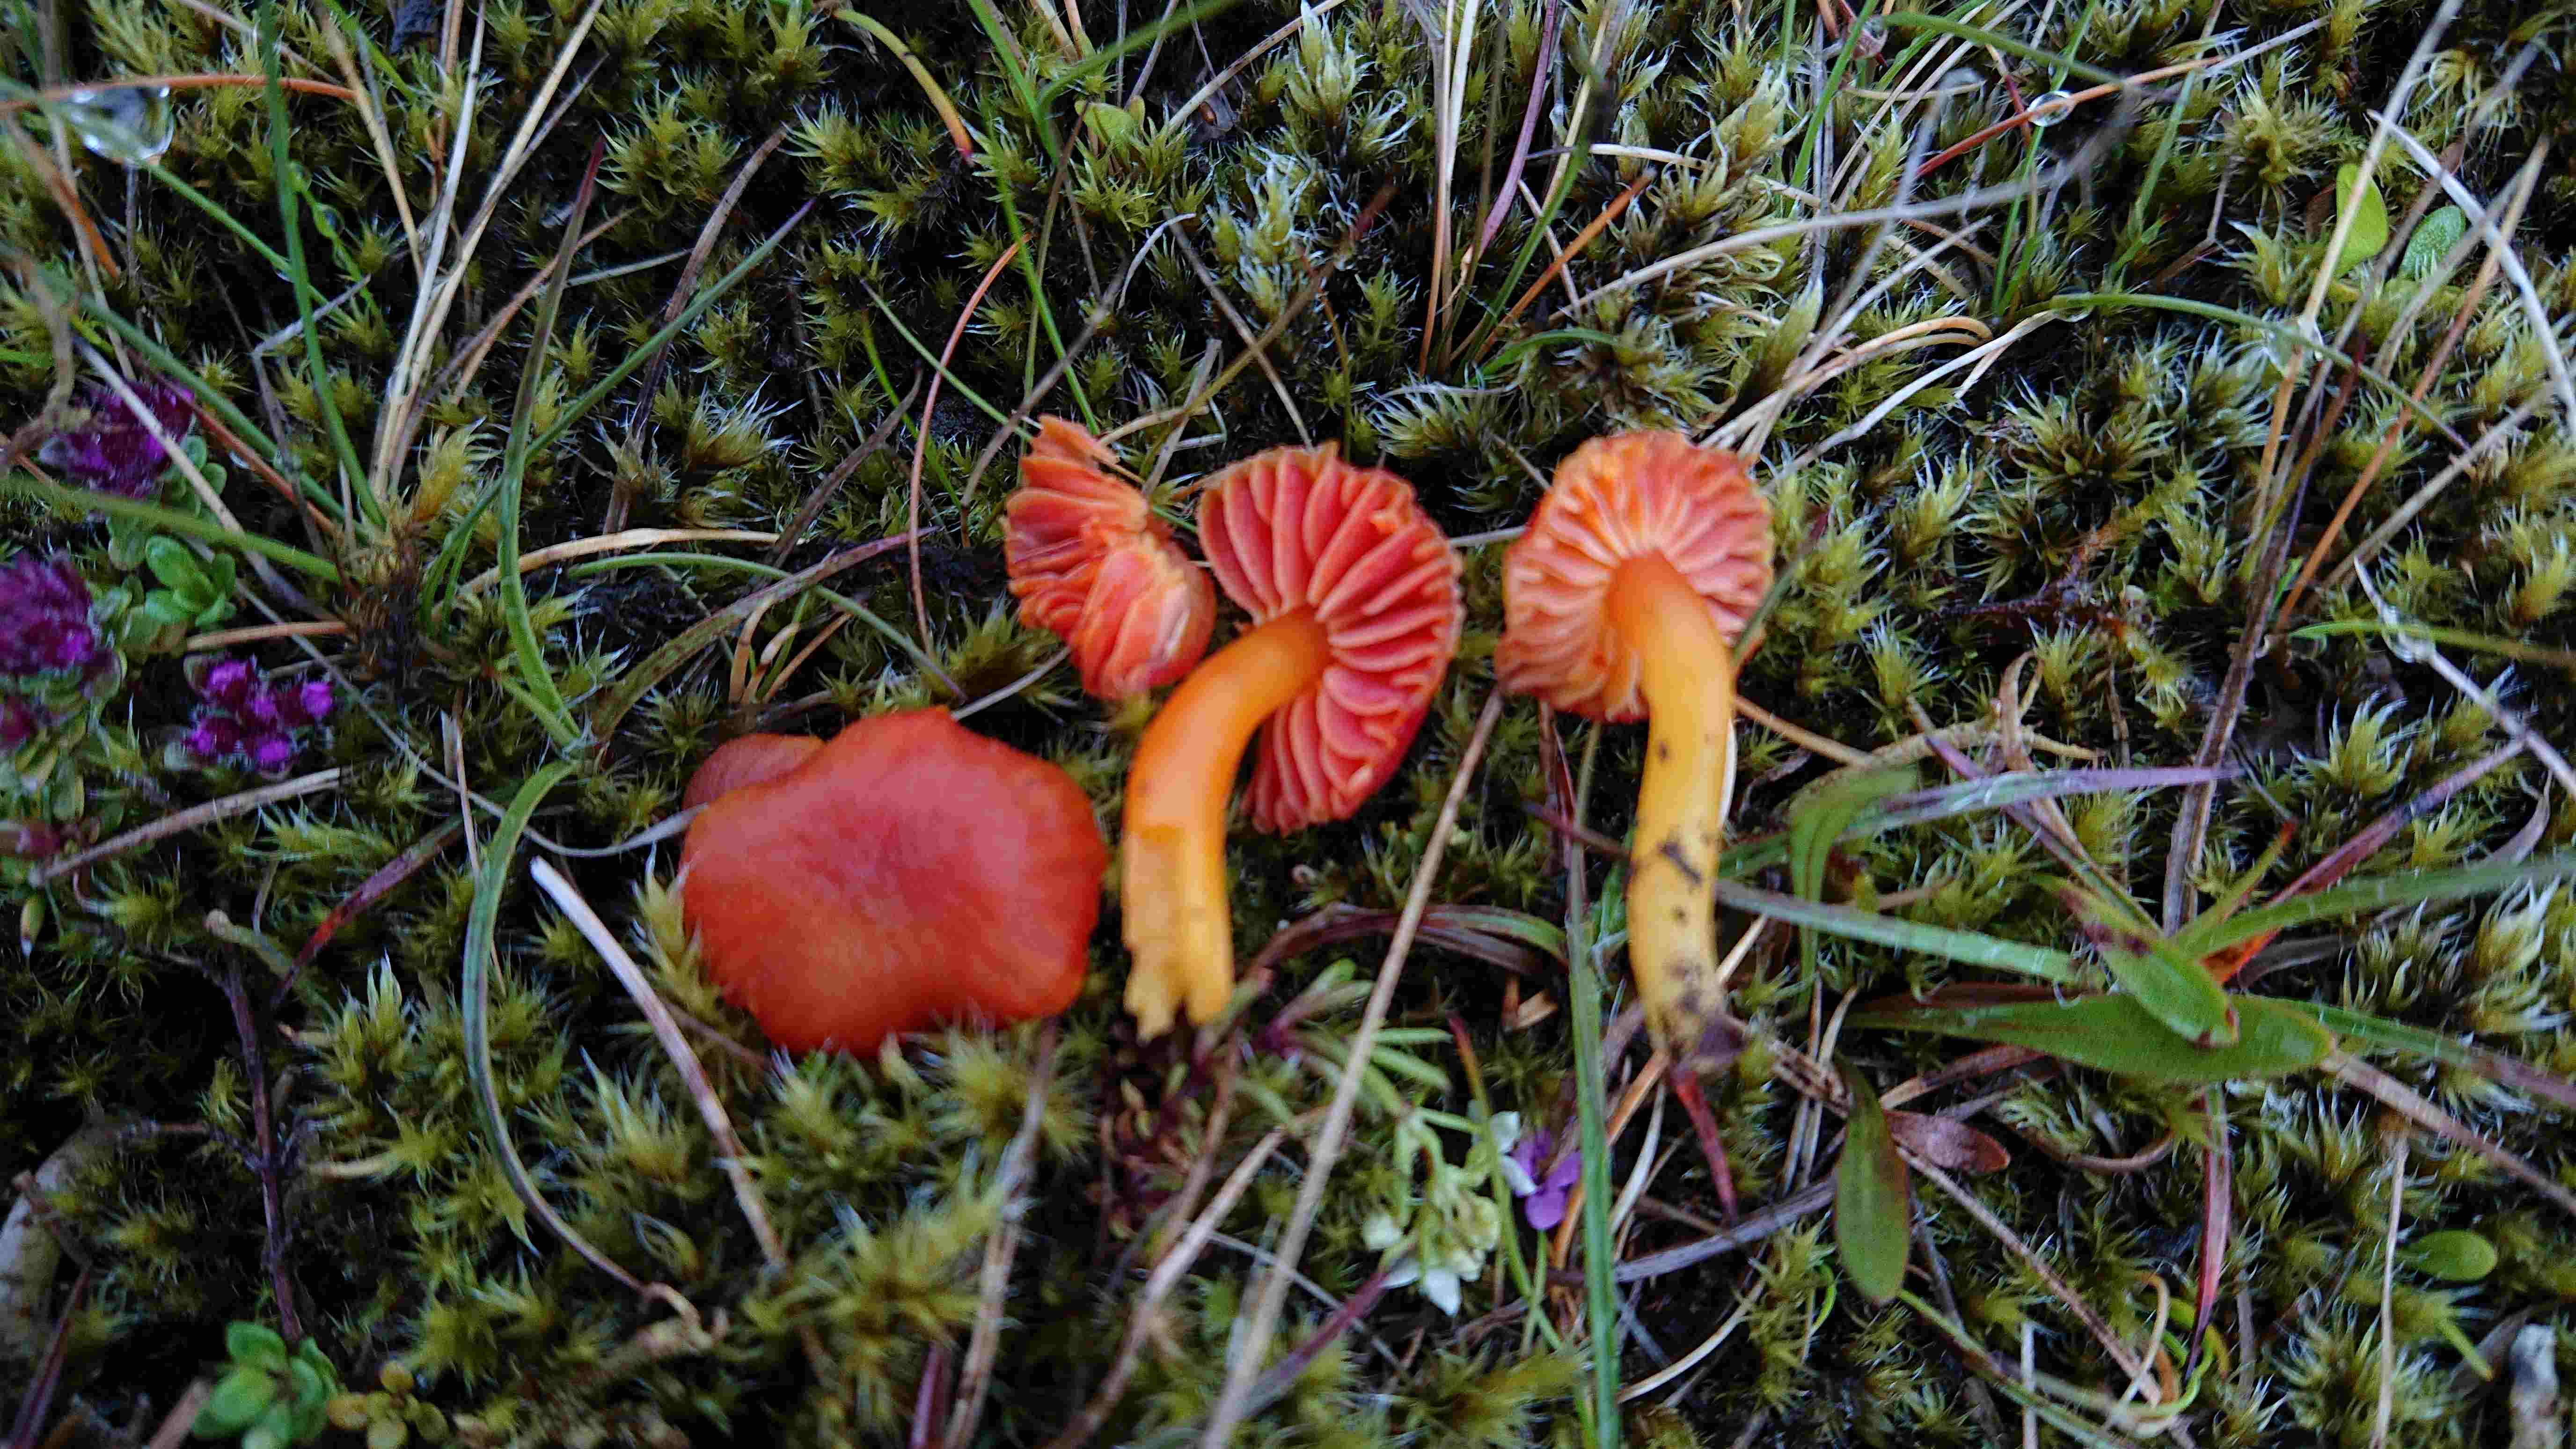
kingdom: Fungi
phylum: Basidiomycota
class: Agaricomycetes
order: Agaricales
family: Hygrophoraceae
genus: Hygrocybe
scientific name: Hygrocybe
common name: vokshat
